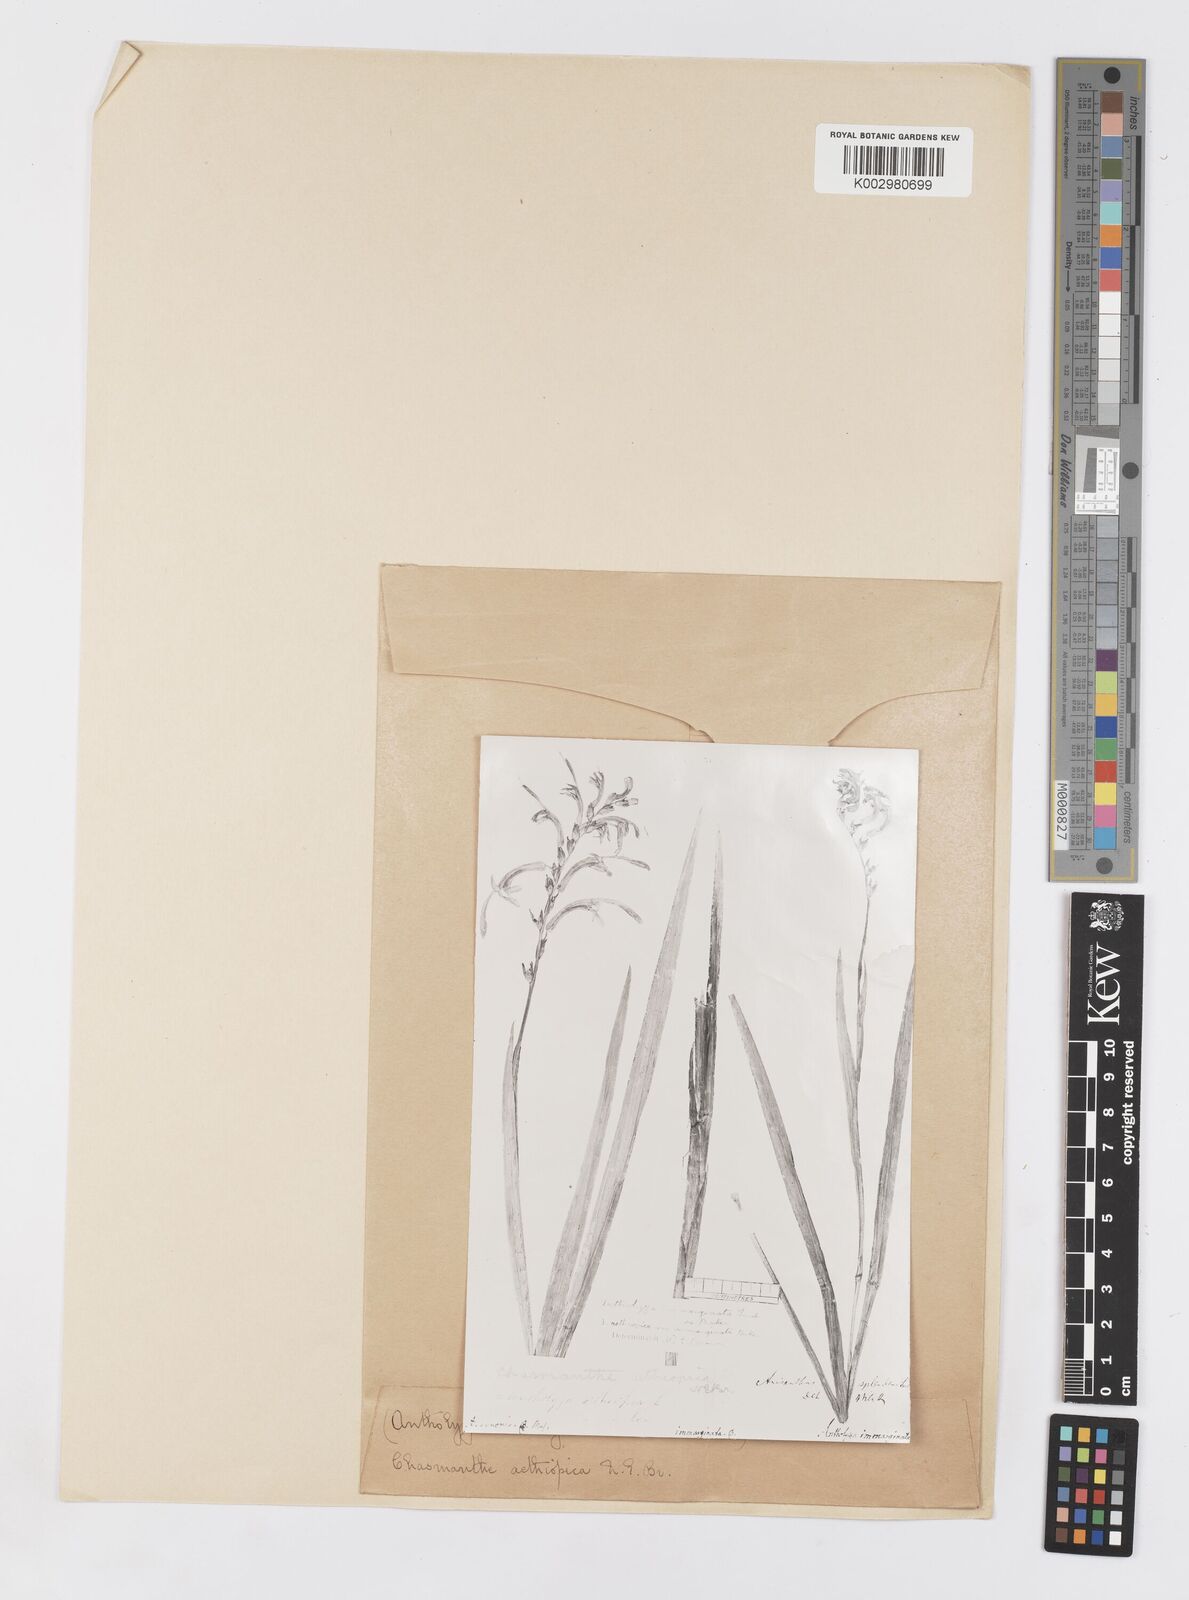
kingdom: Plantae
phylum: Tracheophyta
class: Liliopsida
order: Asparagales
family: Iridaceae
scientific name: Iridaceae
